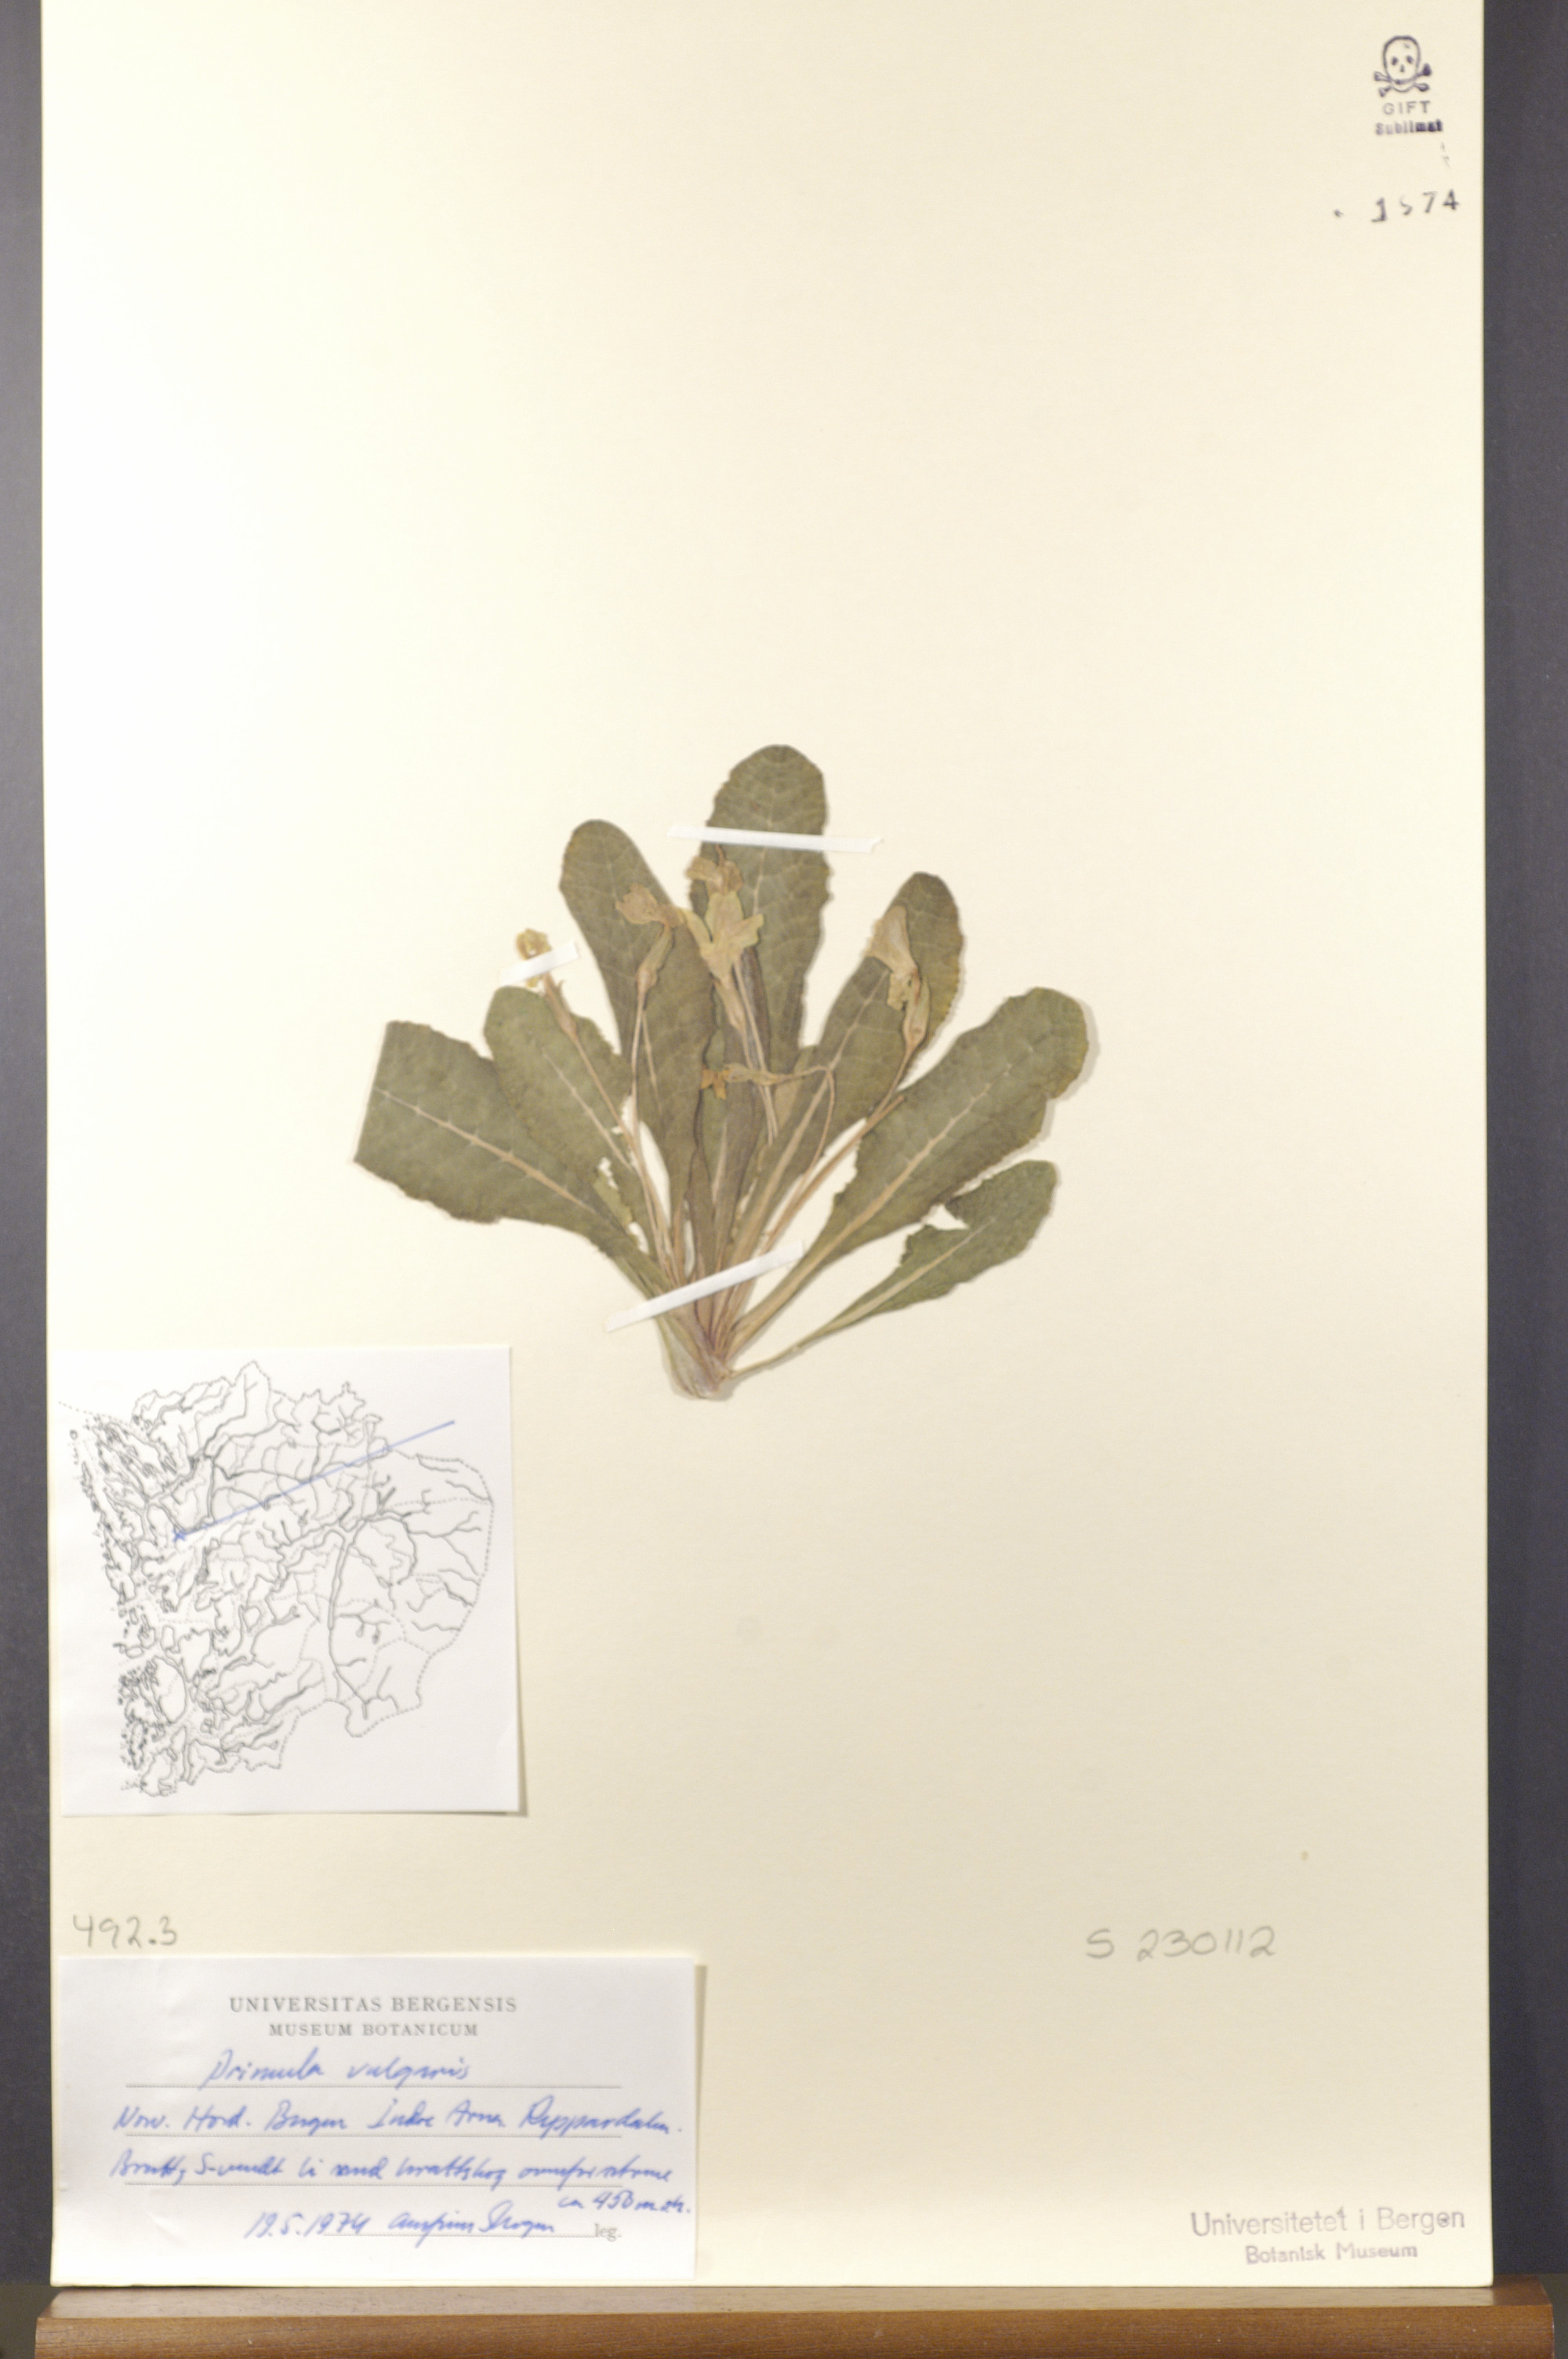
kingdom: Plantae
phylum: Tracheophyta
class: Magnoliopsida
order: Ericales
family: Primulaceae
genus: Primula
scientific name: Primula vulgaris
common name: Primrose
